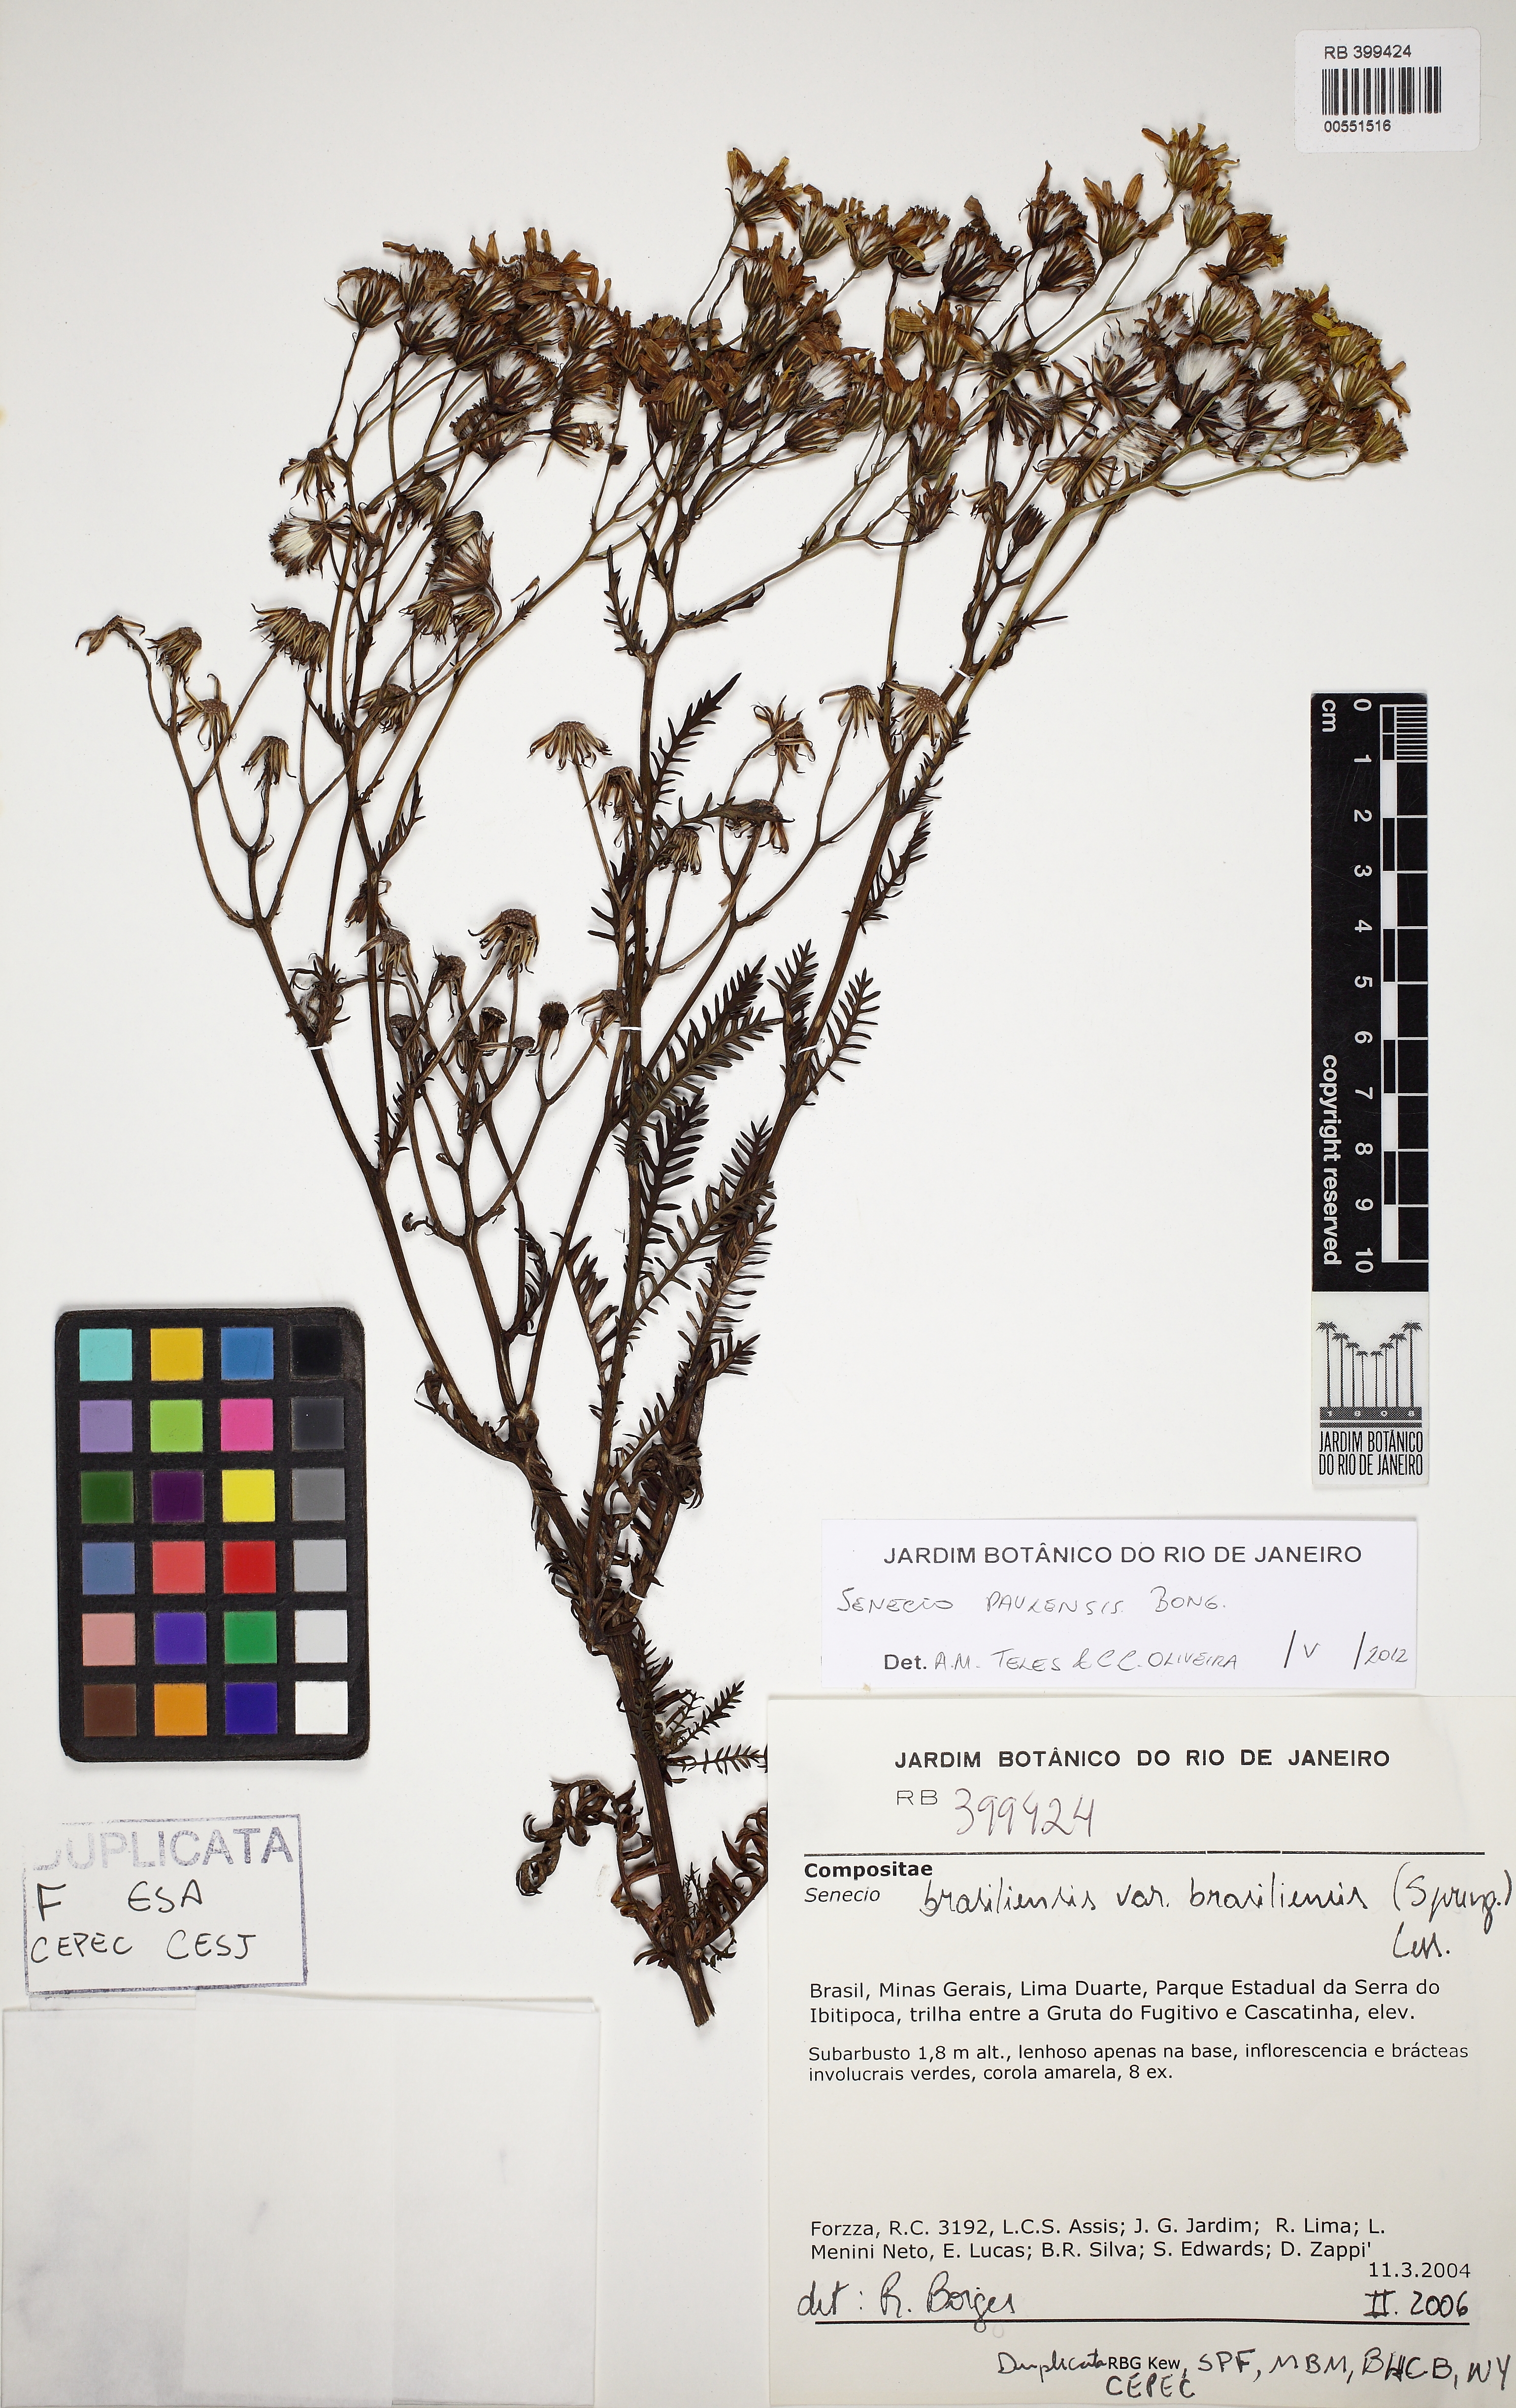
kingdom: Plantae
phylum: Tracheophyta
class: Magnoliopsida
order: Asterales
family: Asteraceae
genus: Senecio
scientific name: Senecio paulensis
